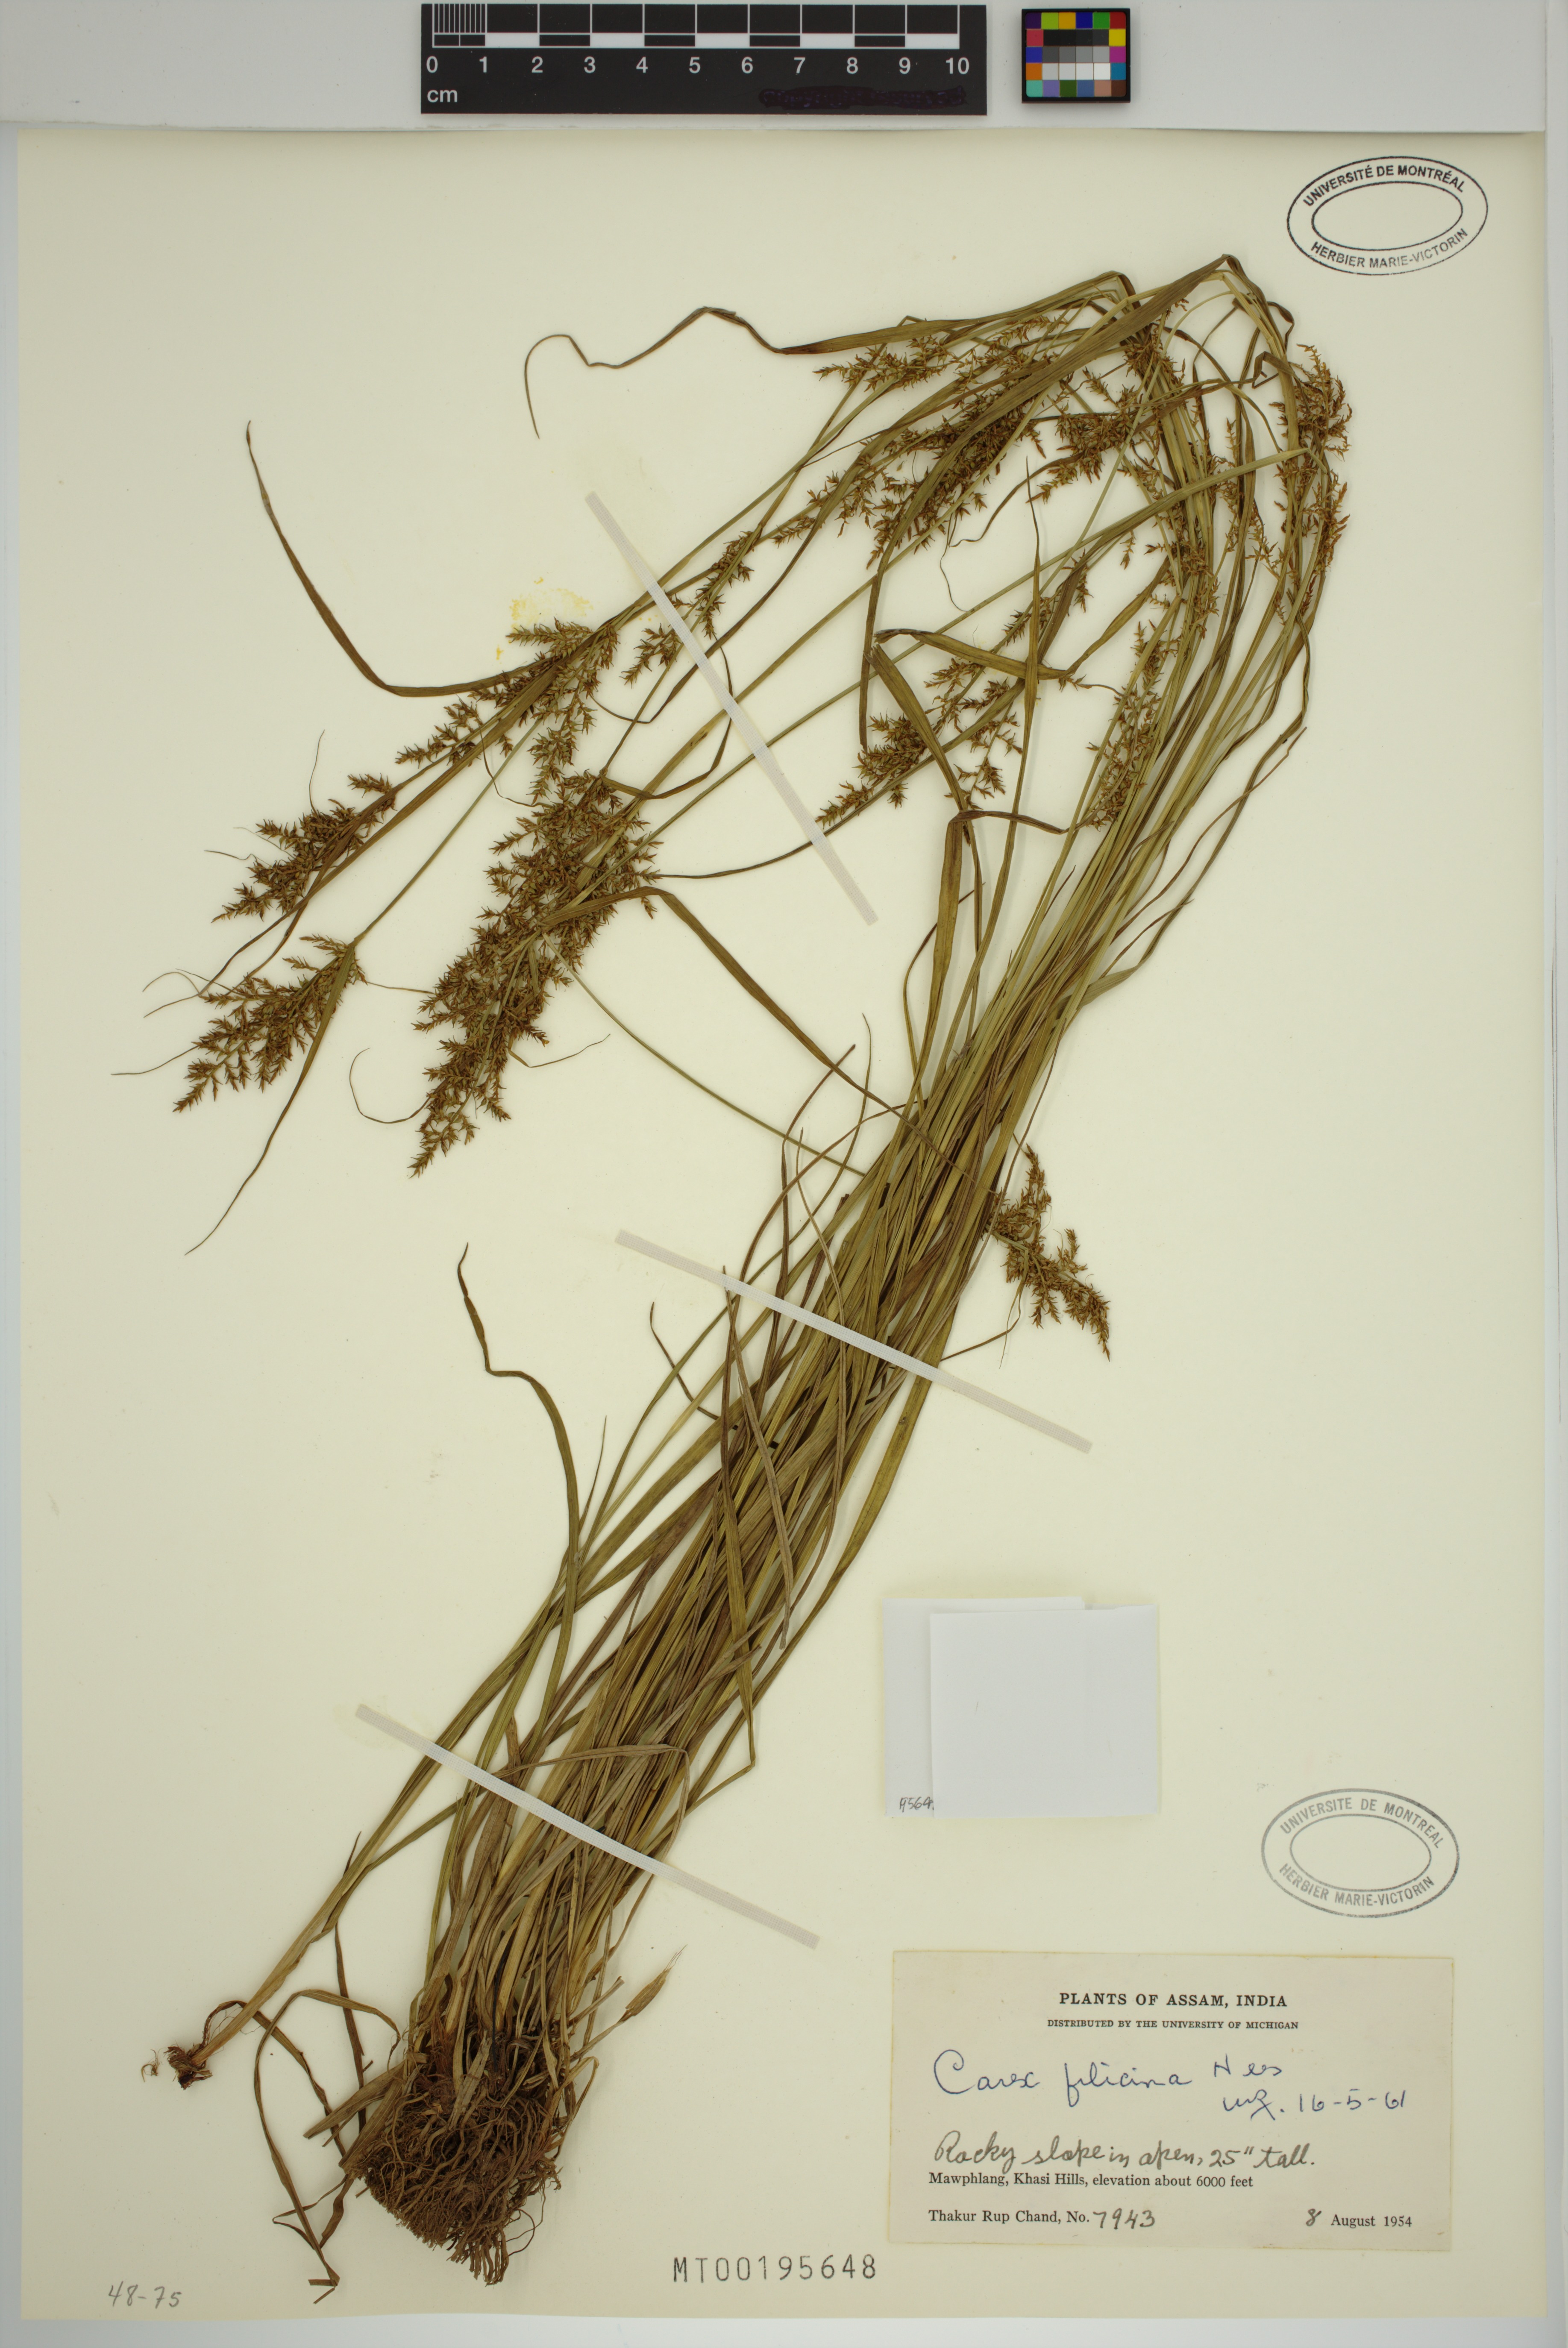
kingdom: Plantae
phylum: Tracheophyta
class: Liliopsida
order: Poales
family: Cyperaceae
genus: Carex
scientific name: Carex filicina
